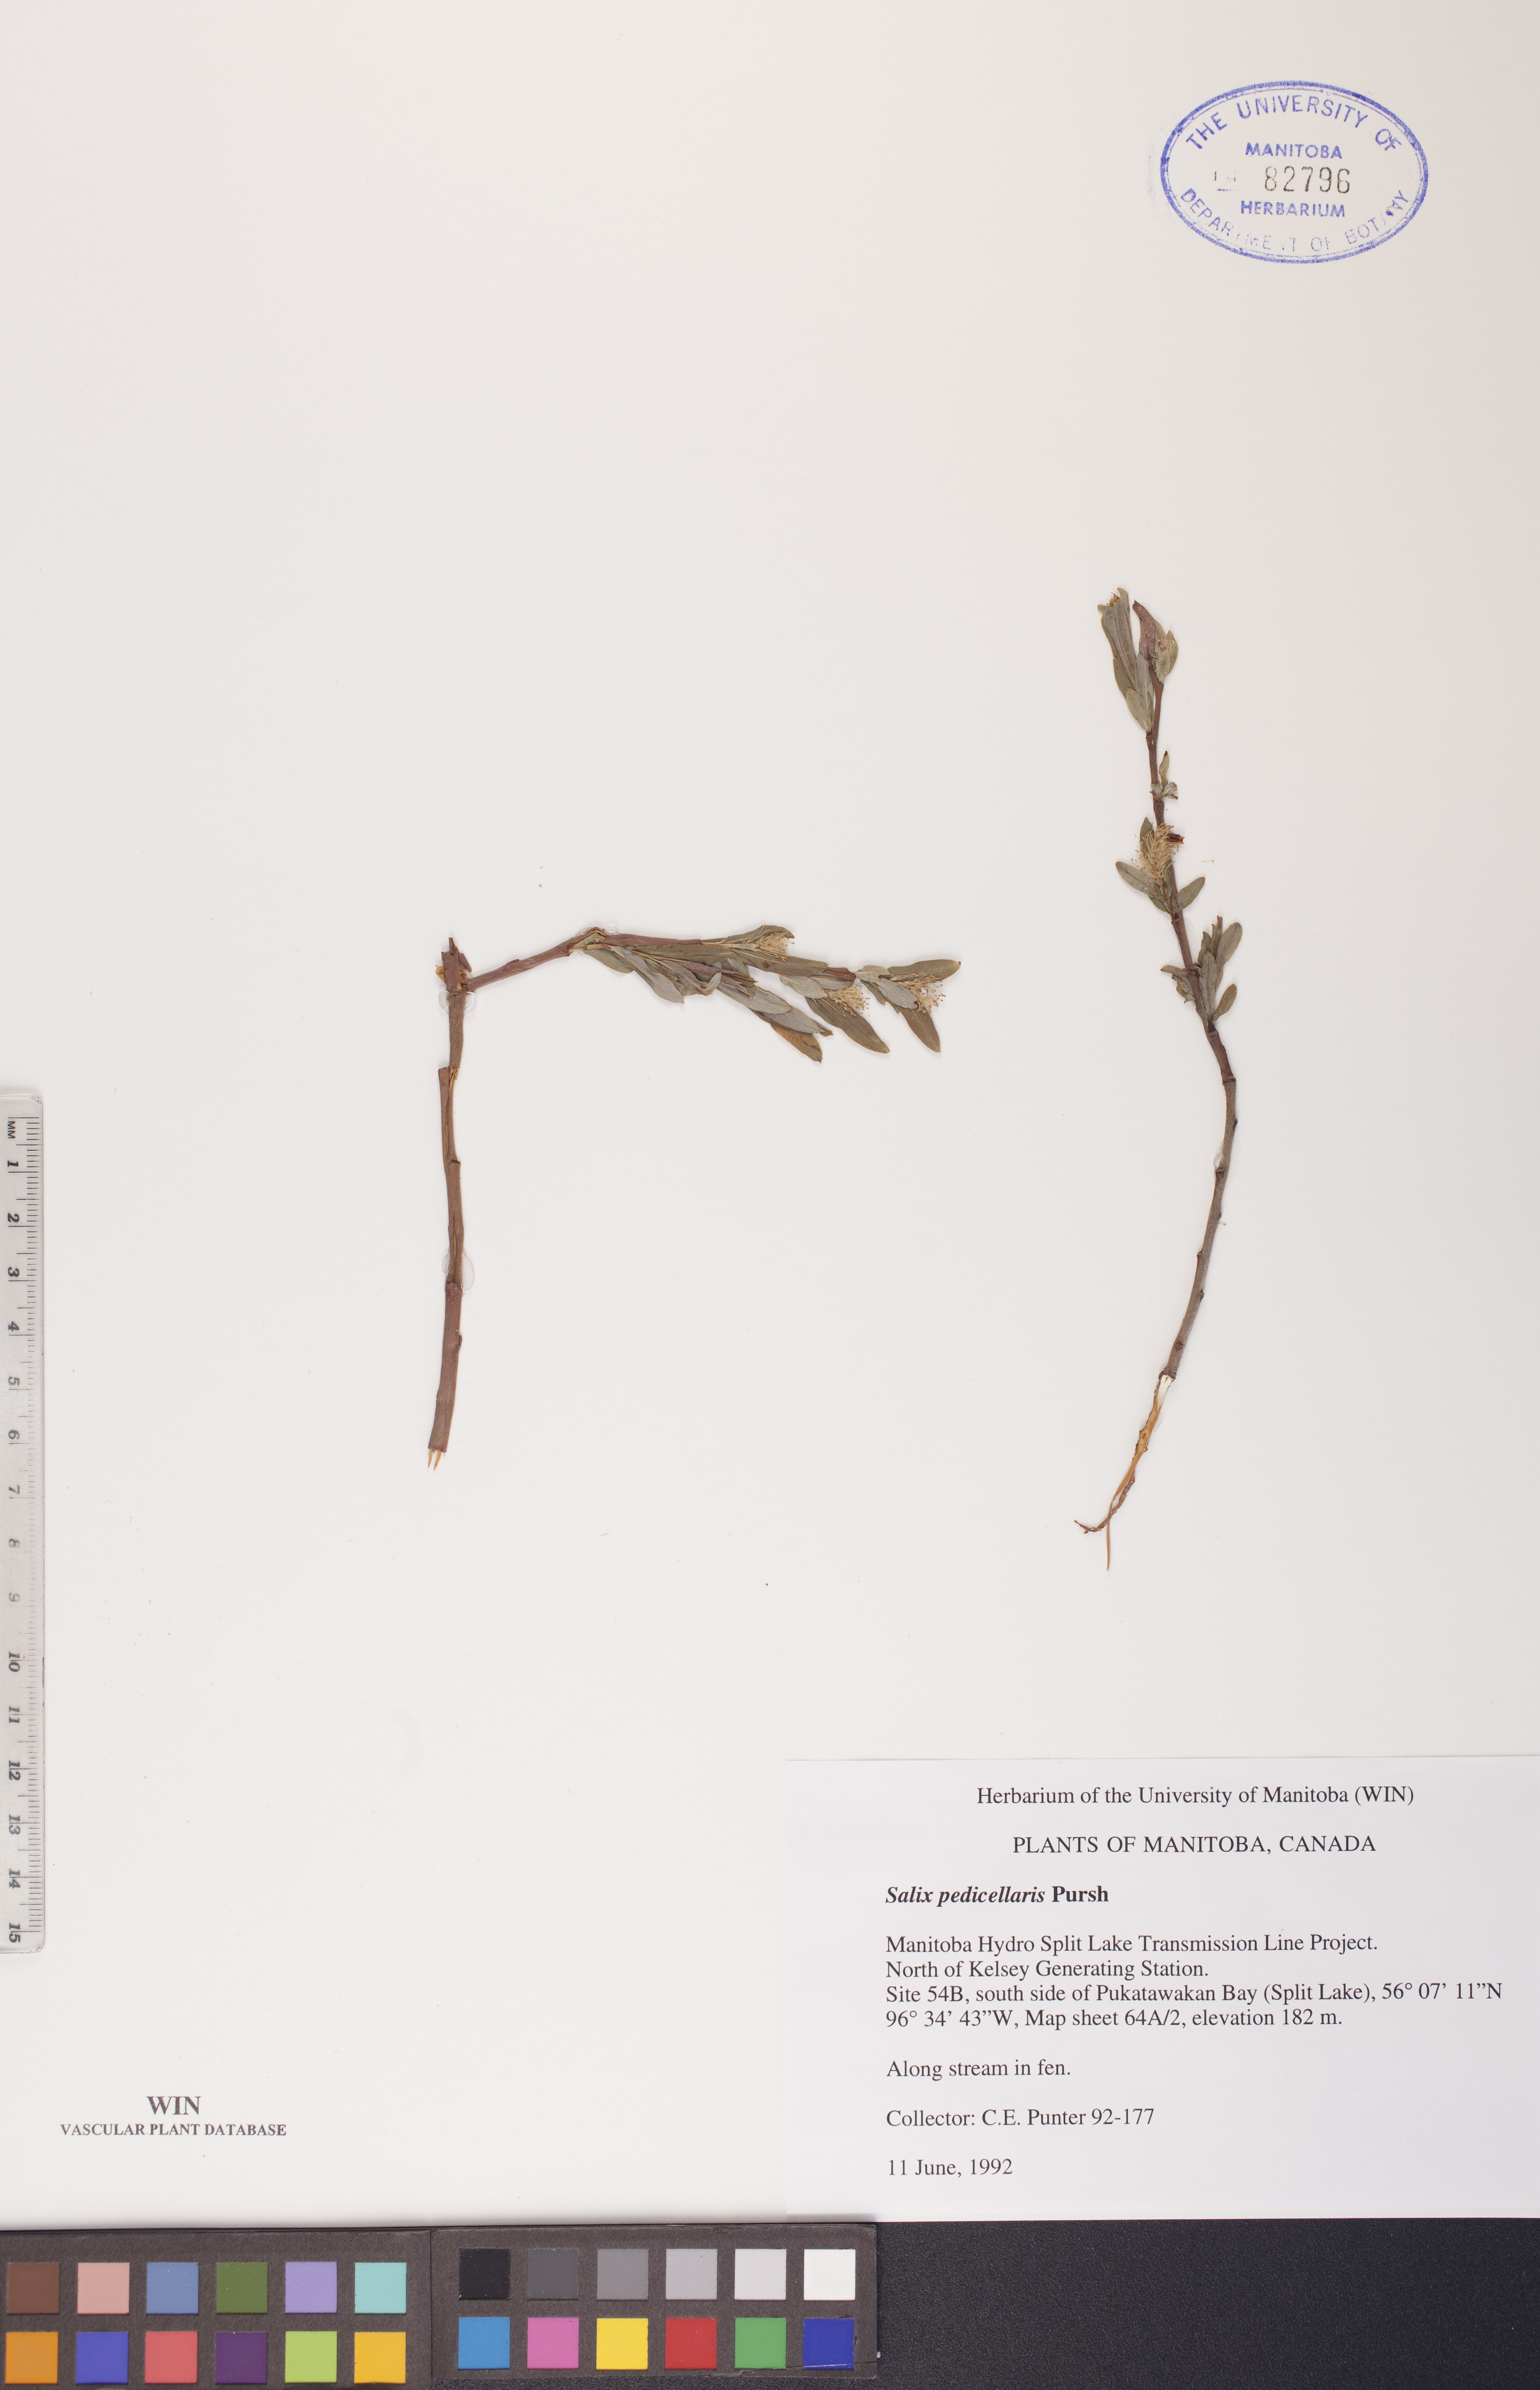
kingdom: Plantae
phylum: Tracheophyta
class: Magnoliopsida
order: Malpighiales
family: Salicaceae
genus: Salix
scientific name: Salix pedicellaris
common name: Bog willow
